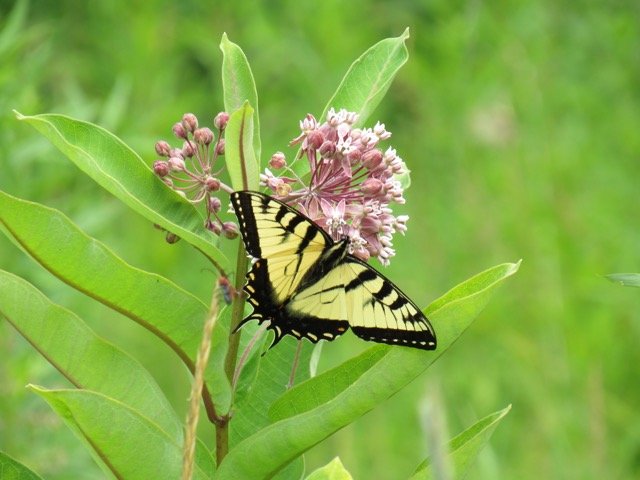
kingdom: Animalia
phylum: Arthropoda
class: Insecta
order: Lepidoptera
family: Papilionidae
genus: Pterourus
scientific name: Pterourus
